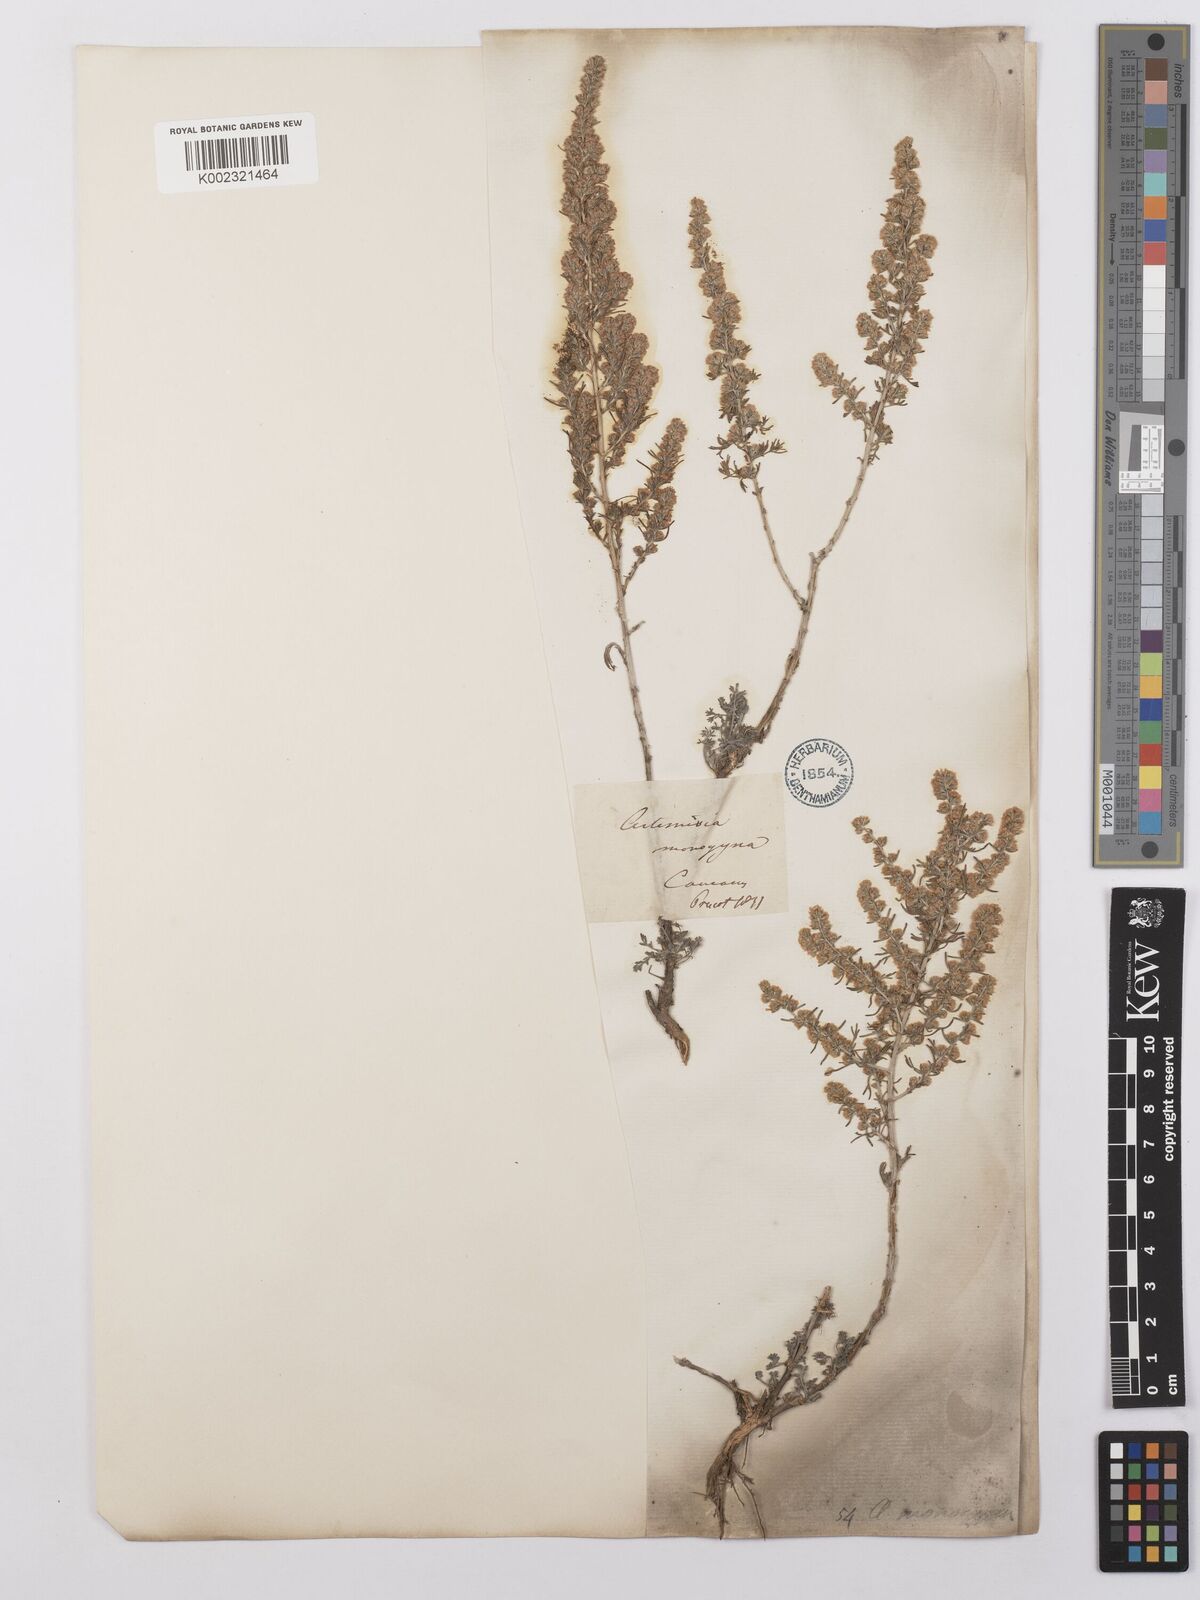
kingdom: Plantae
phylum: Tracheophyta
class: Magnoliopsida
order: Asterales
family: Asteraceae
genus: Artemisia
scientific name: Artemisia fragrans
